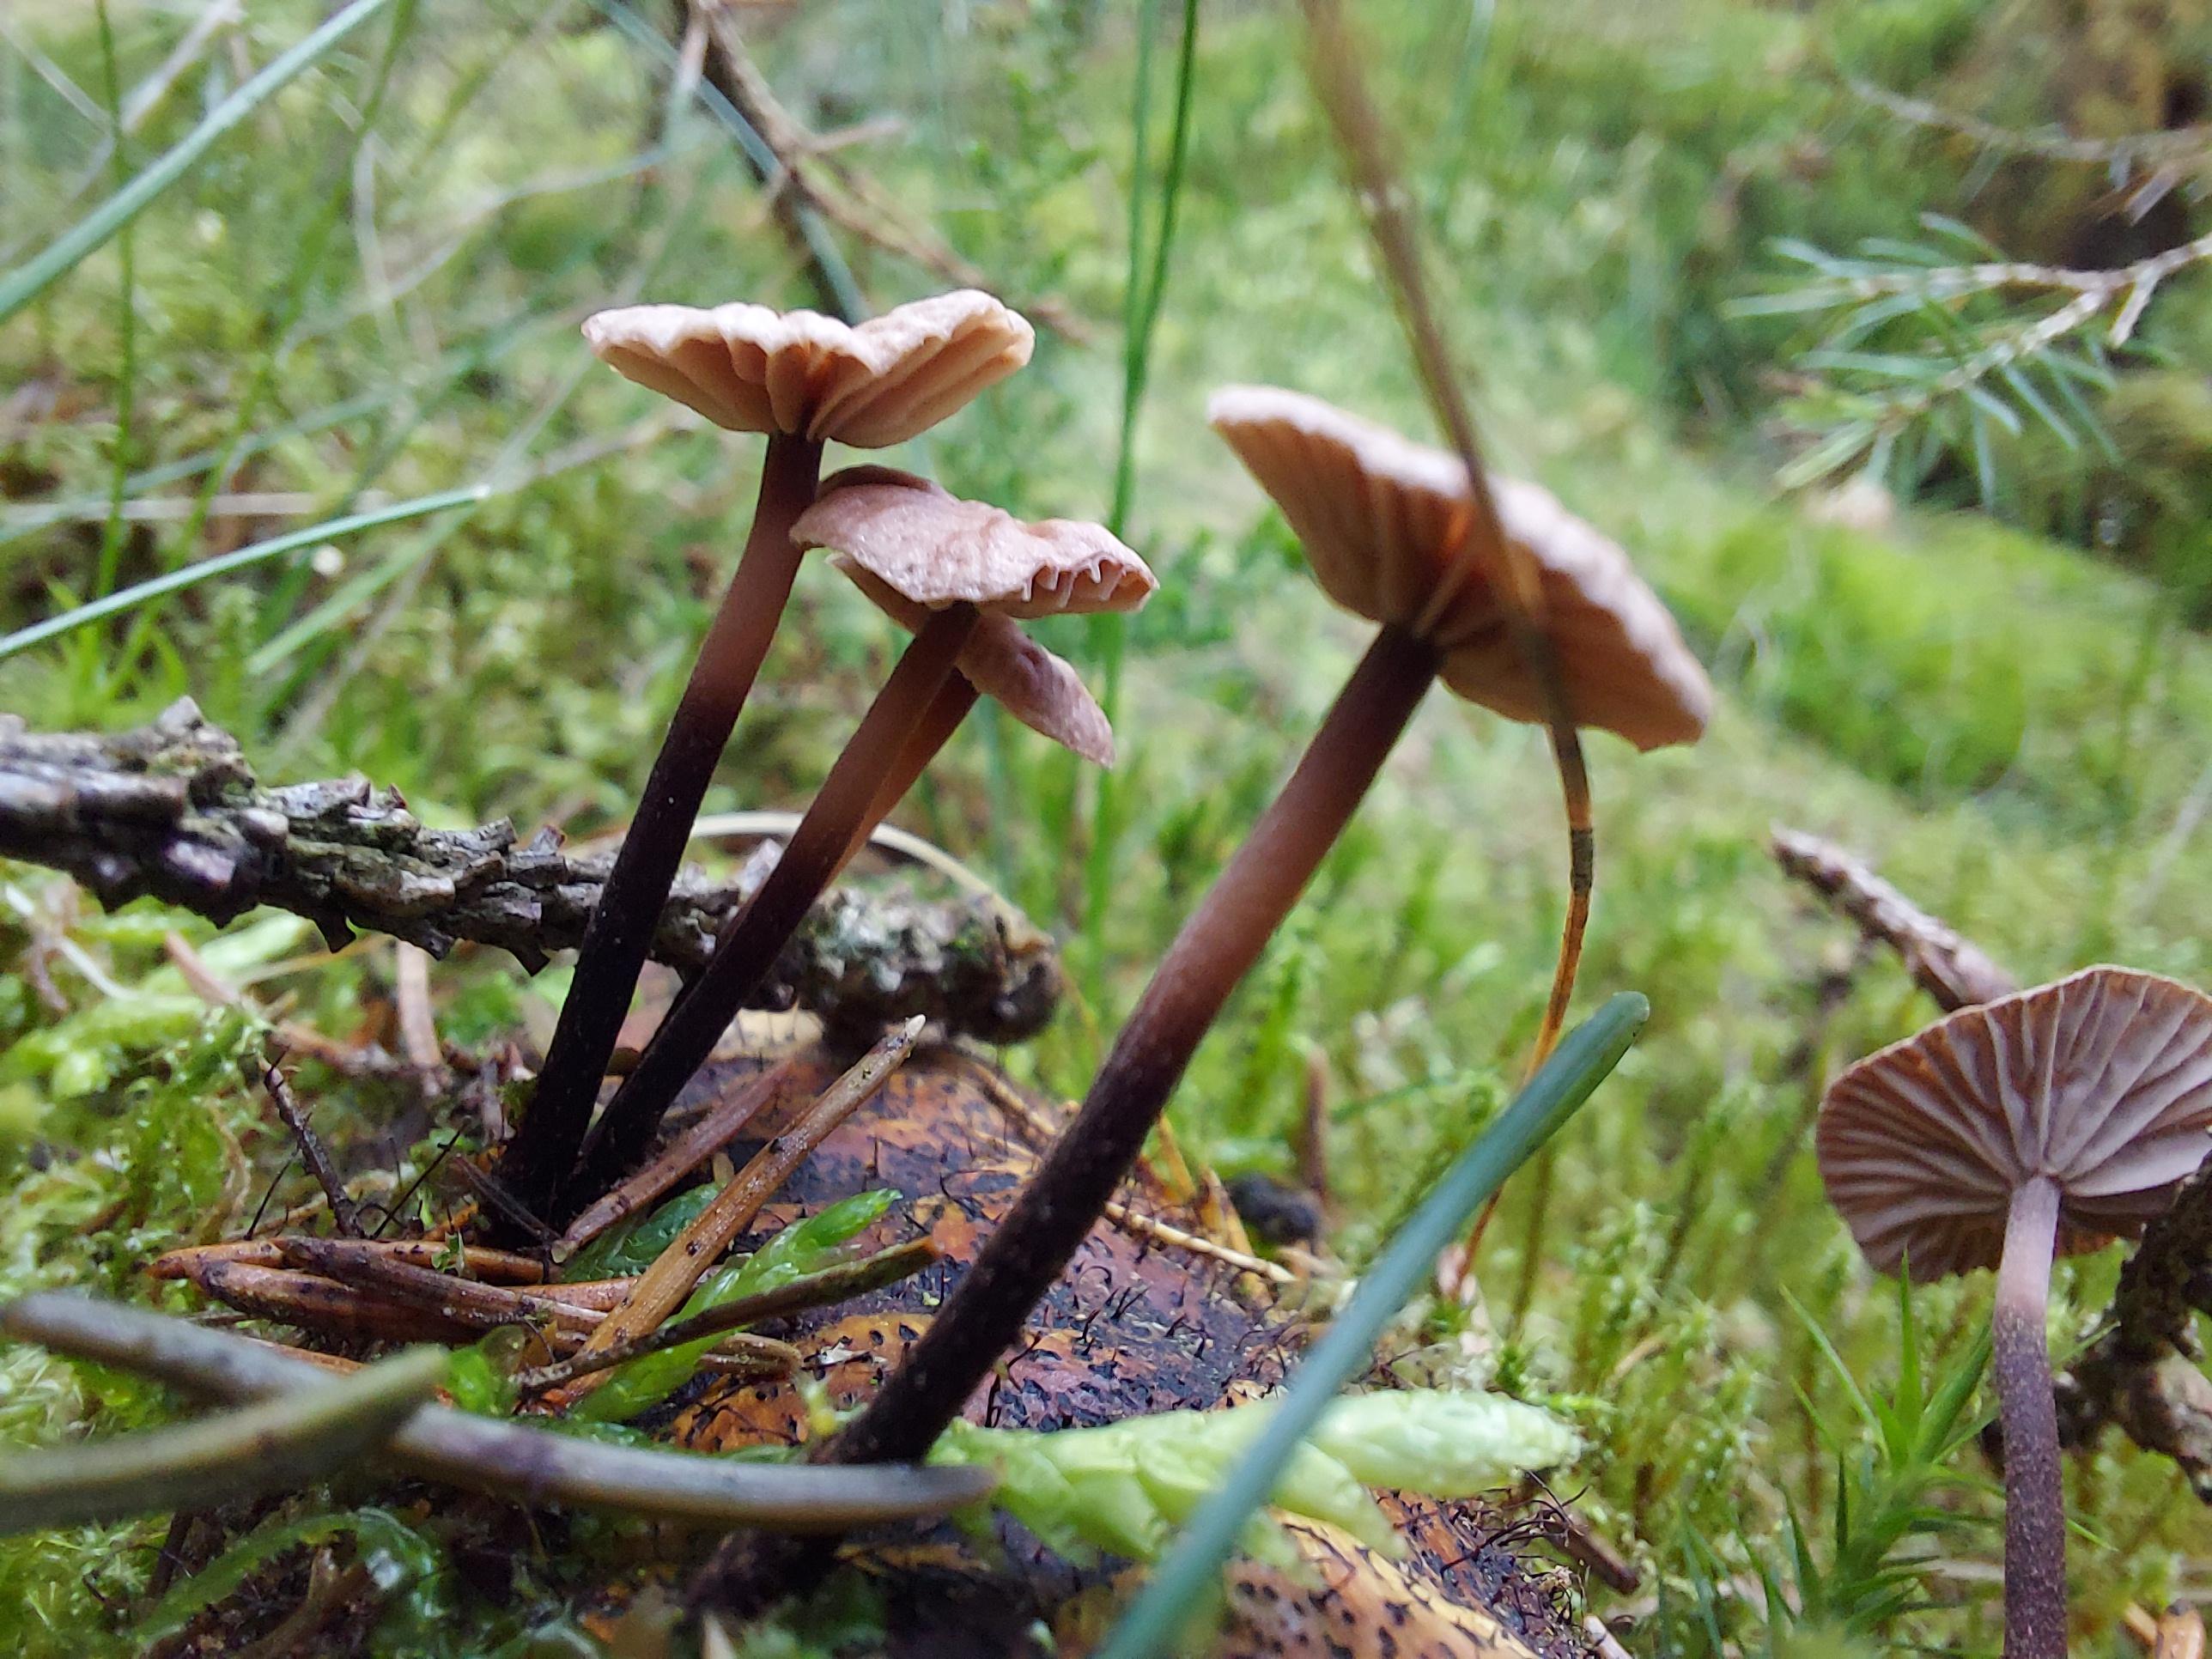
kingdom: Fungi
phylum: Basidiomycota
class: Agaricomycetes
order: Agaricales
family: Omphalotaceae
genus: Paragymnopus
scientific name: Paragymnopus perforans
